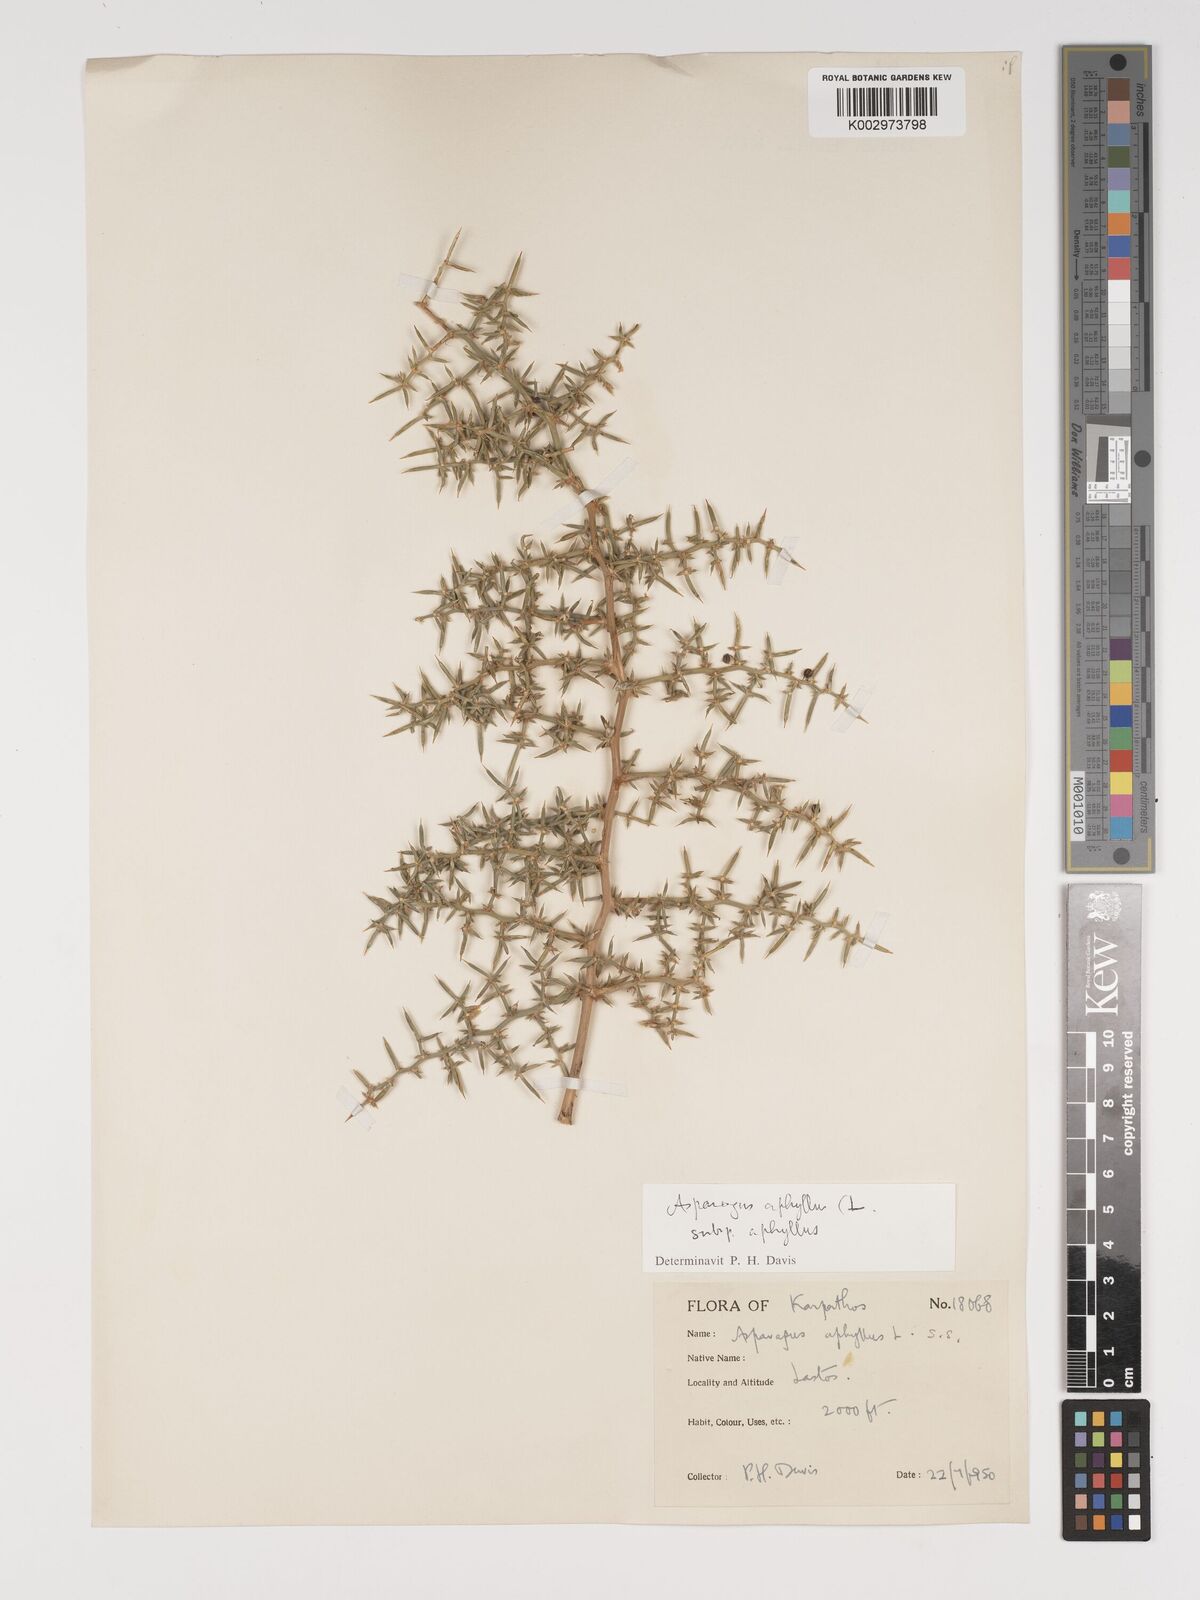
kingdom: Plantae
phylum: Tracheophyta
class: Liliopsida
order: Asparagales
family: Asparagaceae
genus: Asparagus
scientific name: Asparagus aphyllus
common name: Mediterranean asparagus
